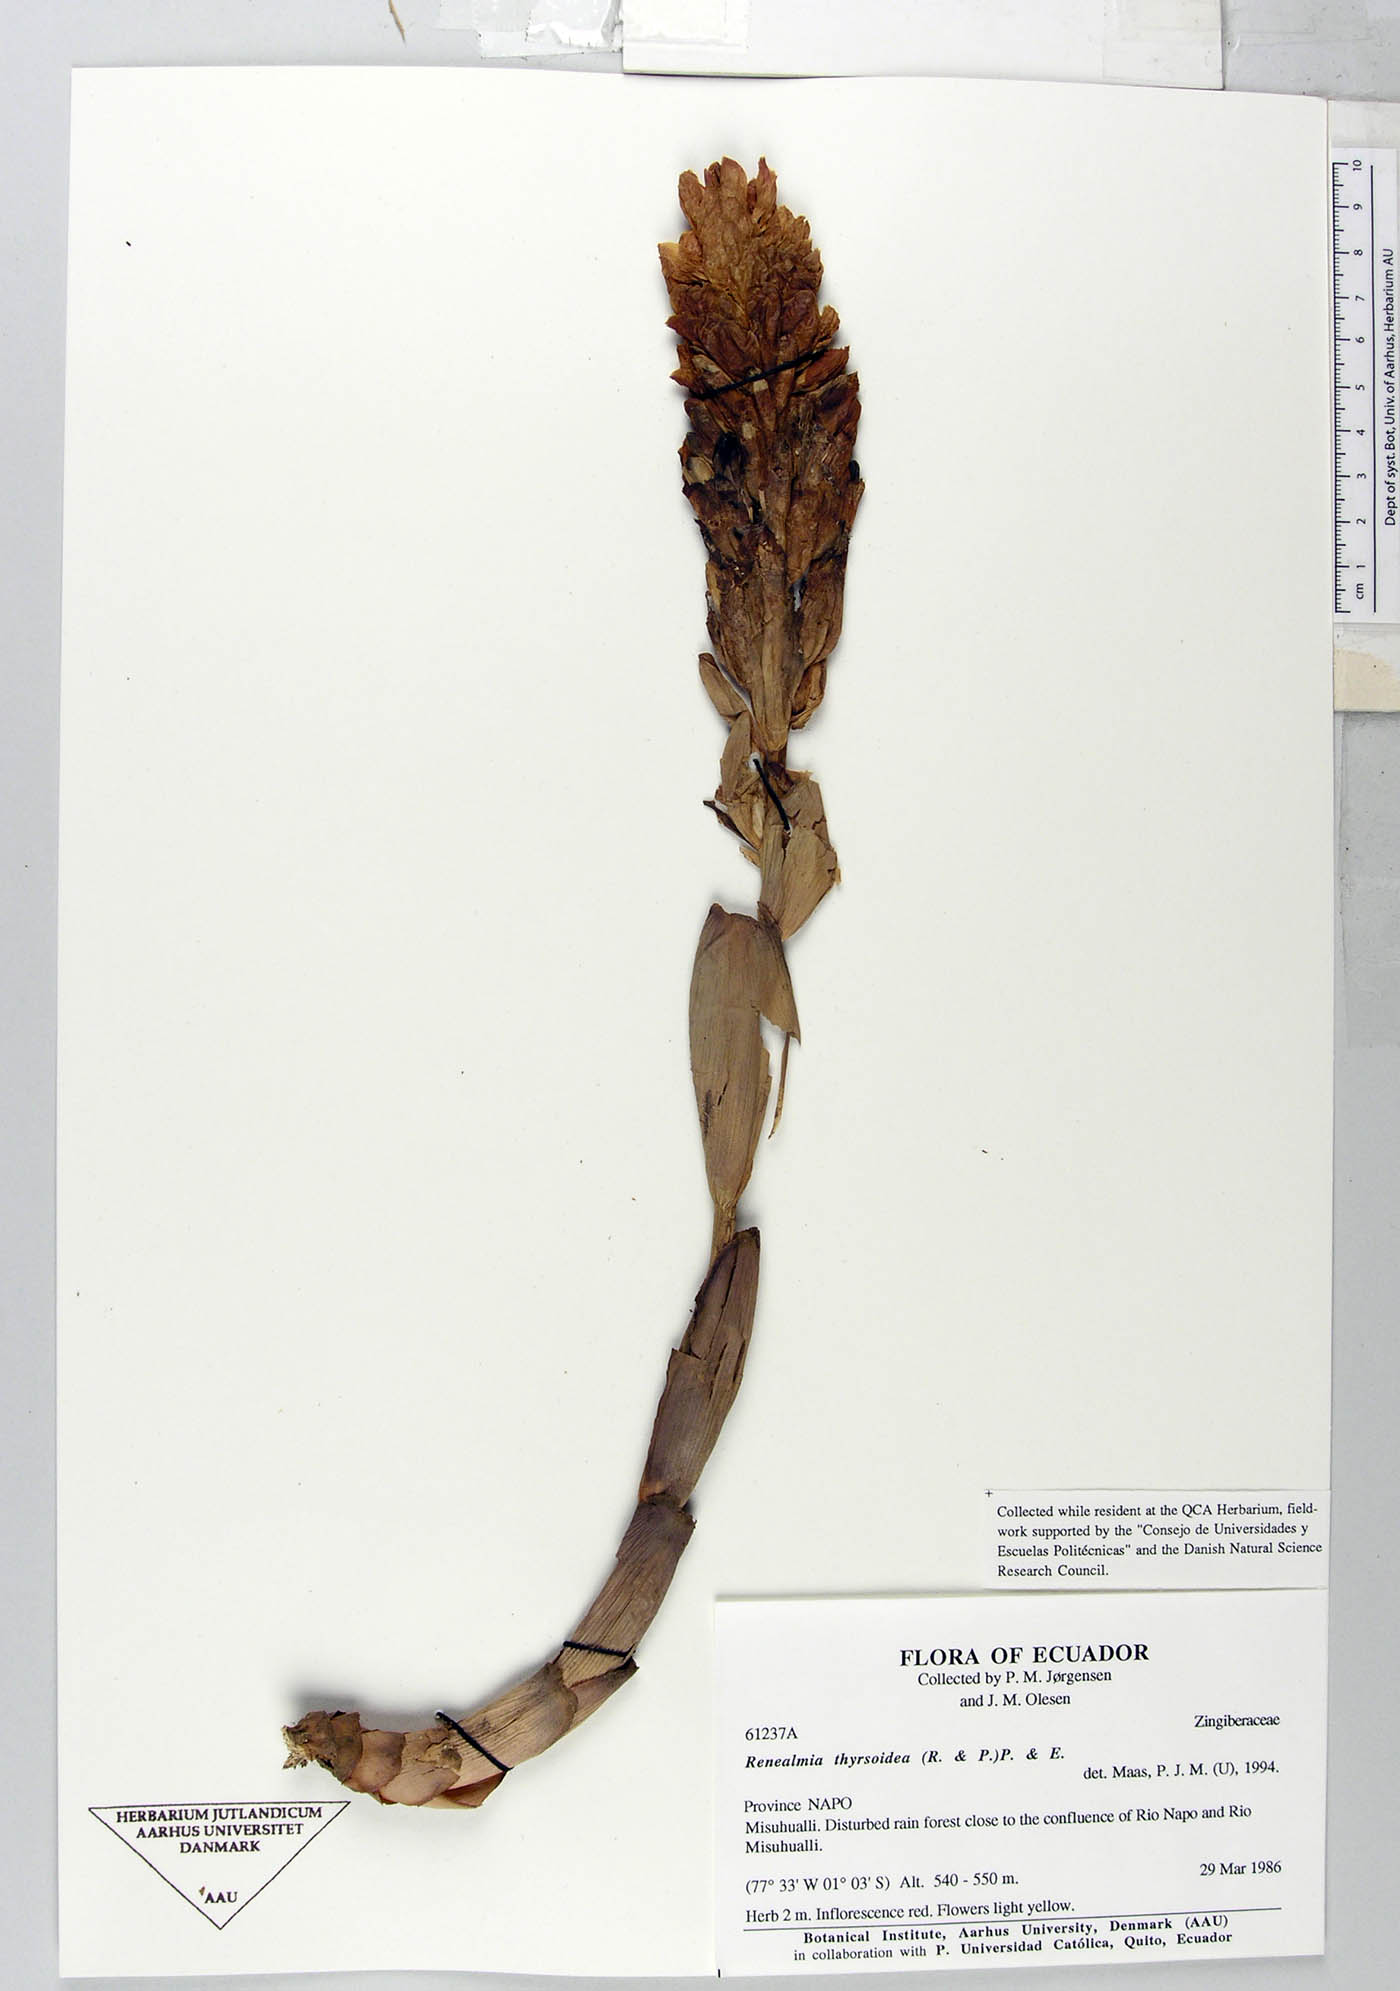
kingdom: Plantae
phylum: Tracheophyta
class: Liliopsida
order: Zingiberales
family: Zingiberaceae
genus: Renealmia
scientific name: Renealmia thyrsoidea
